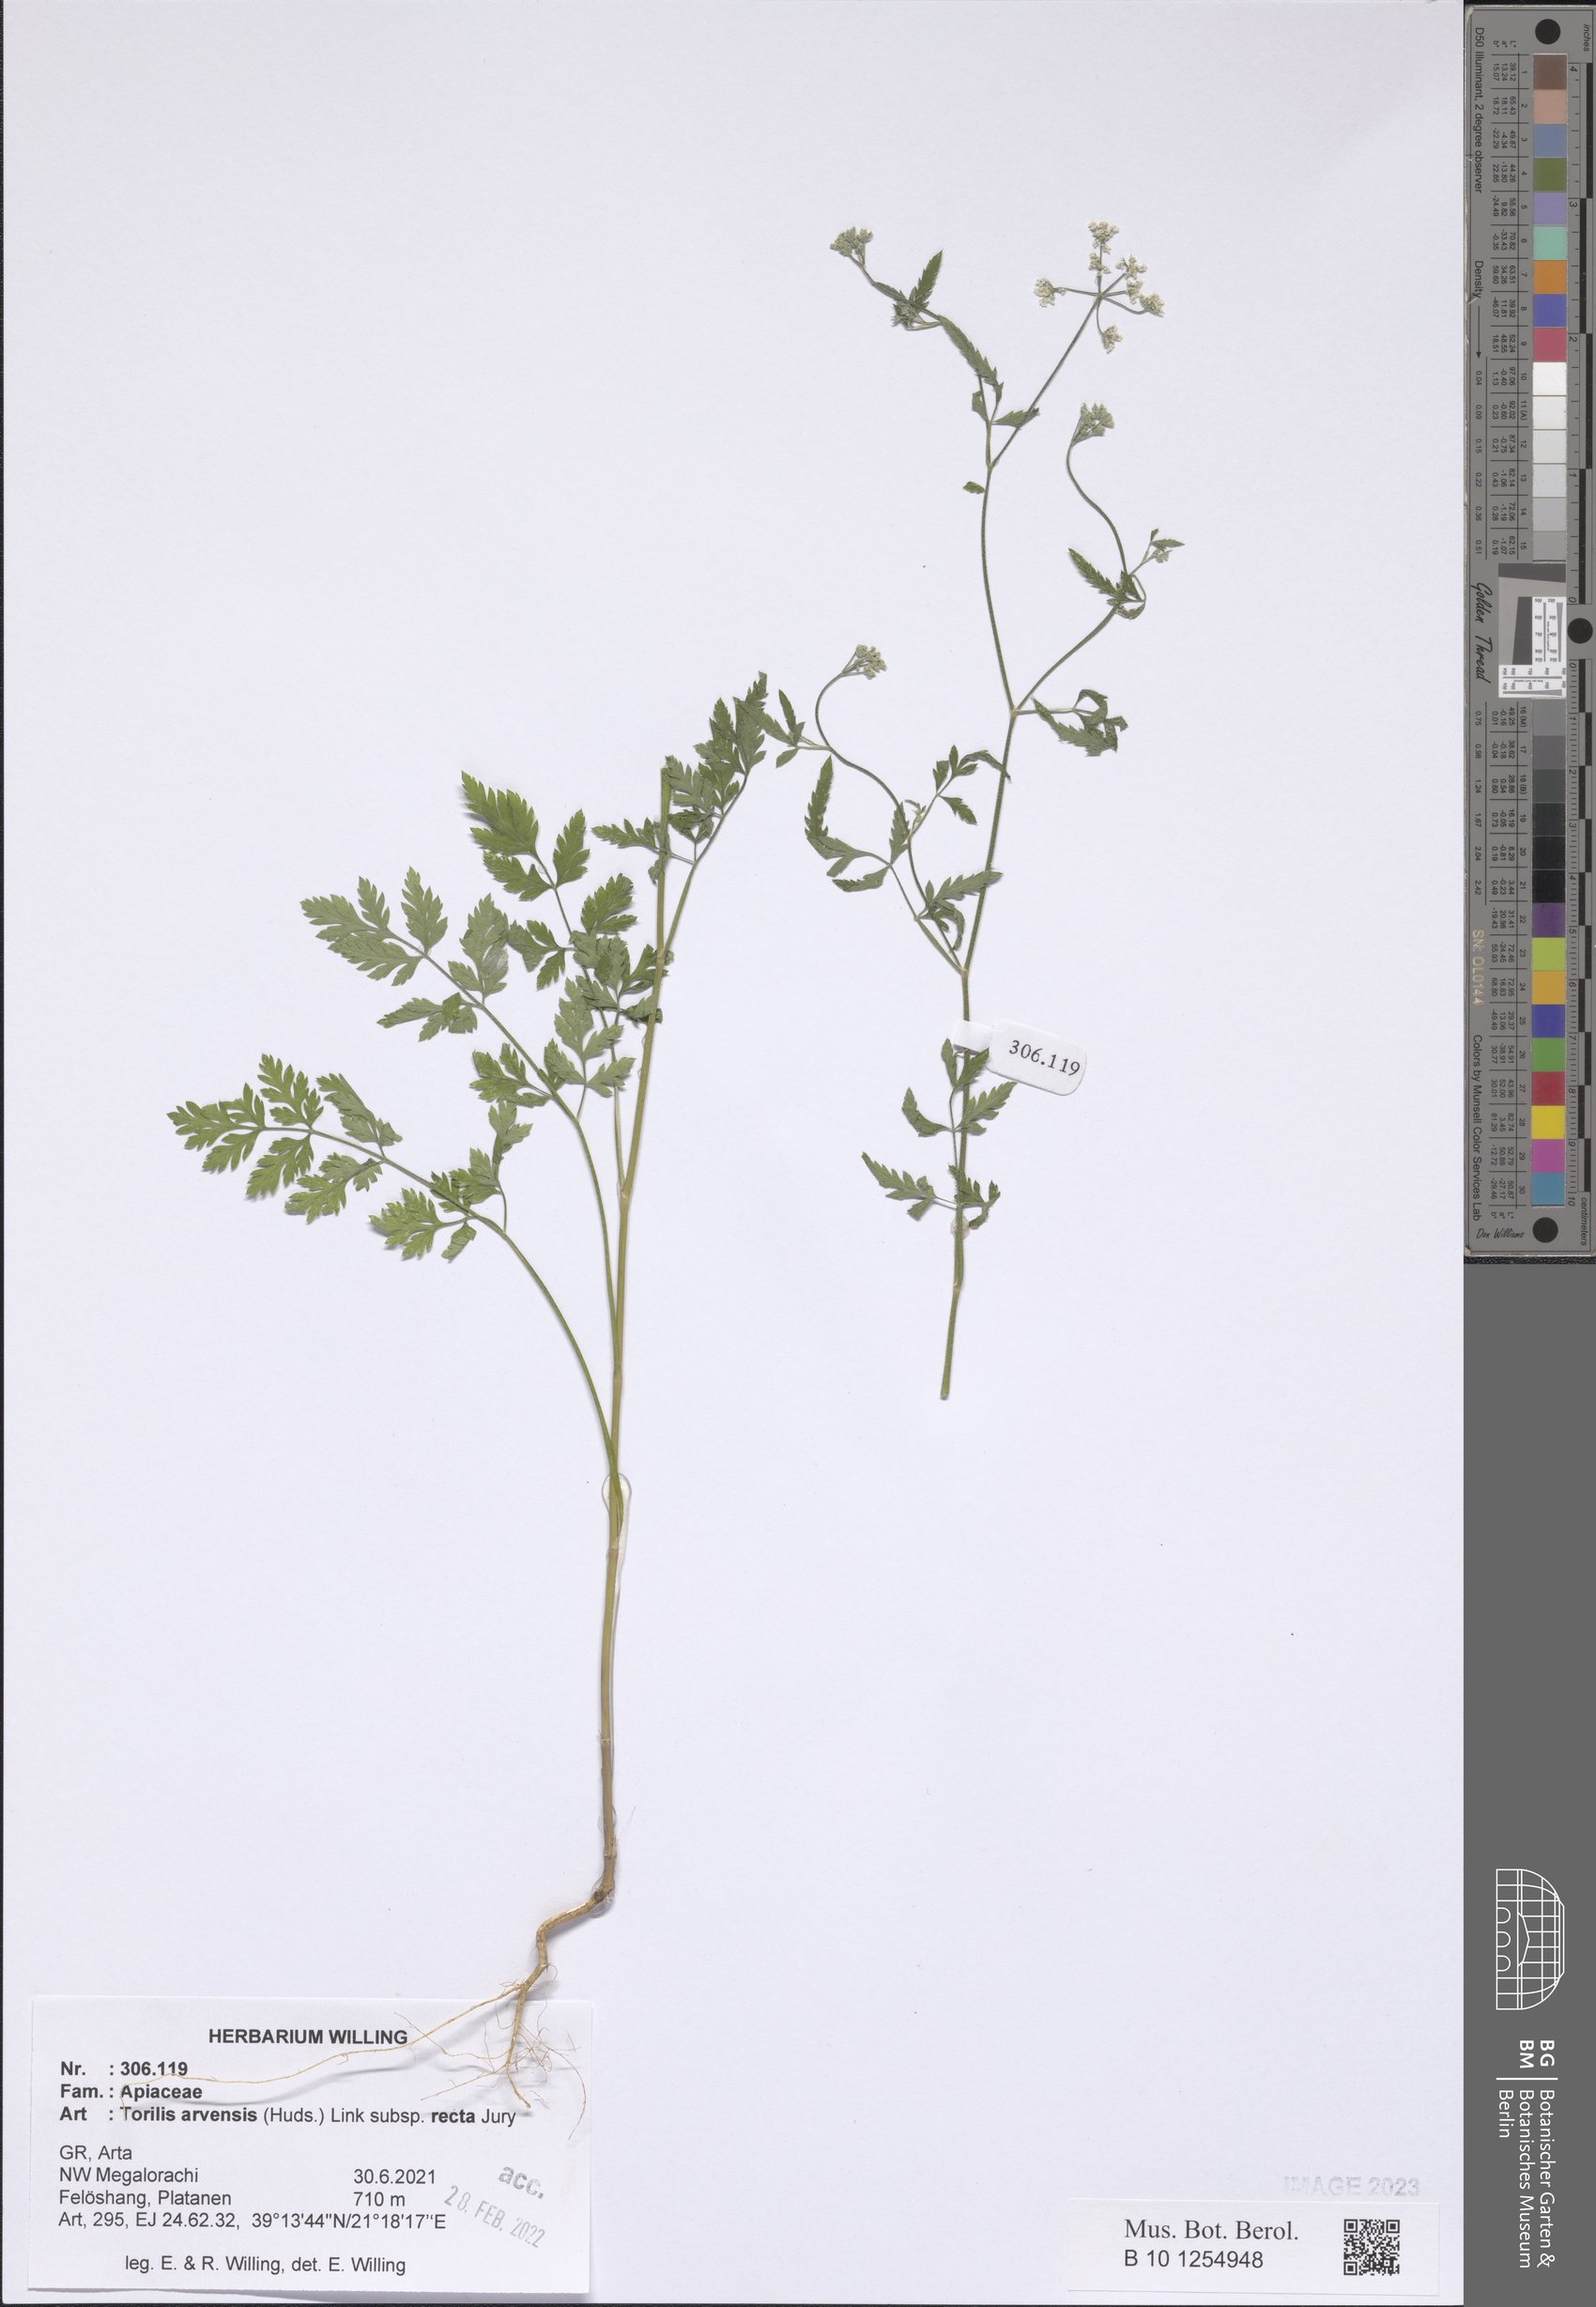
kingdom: Plantae
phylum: Tracheophyta
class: Magnoliopsida
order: Apiales
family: Apiaceae
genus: Torilis
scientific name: Torilis arvensis
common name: Spreading hedge-parsley
